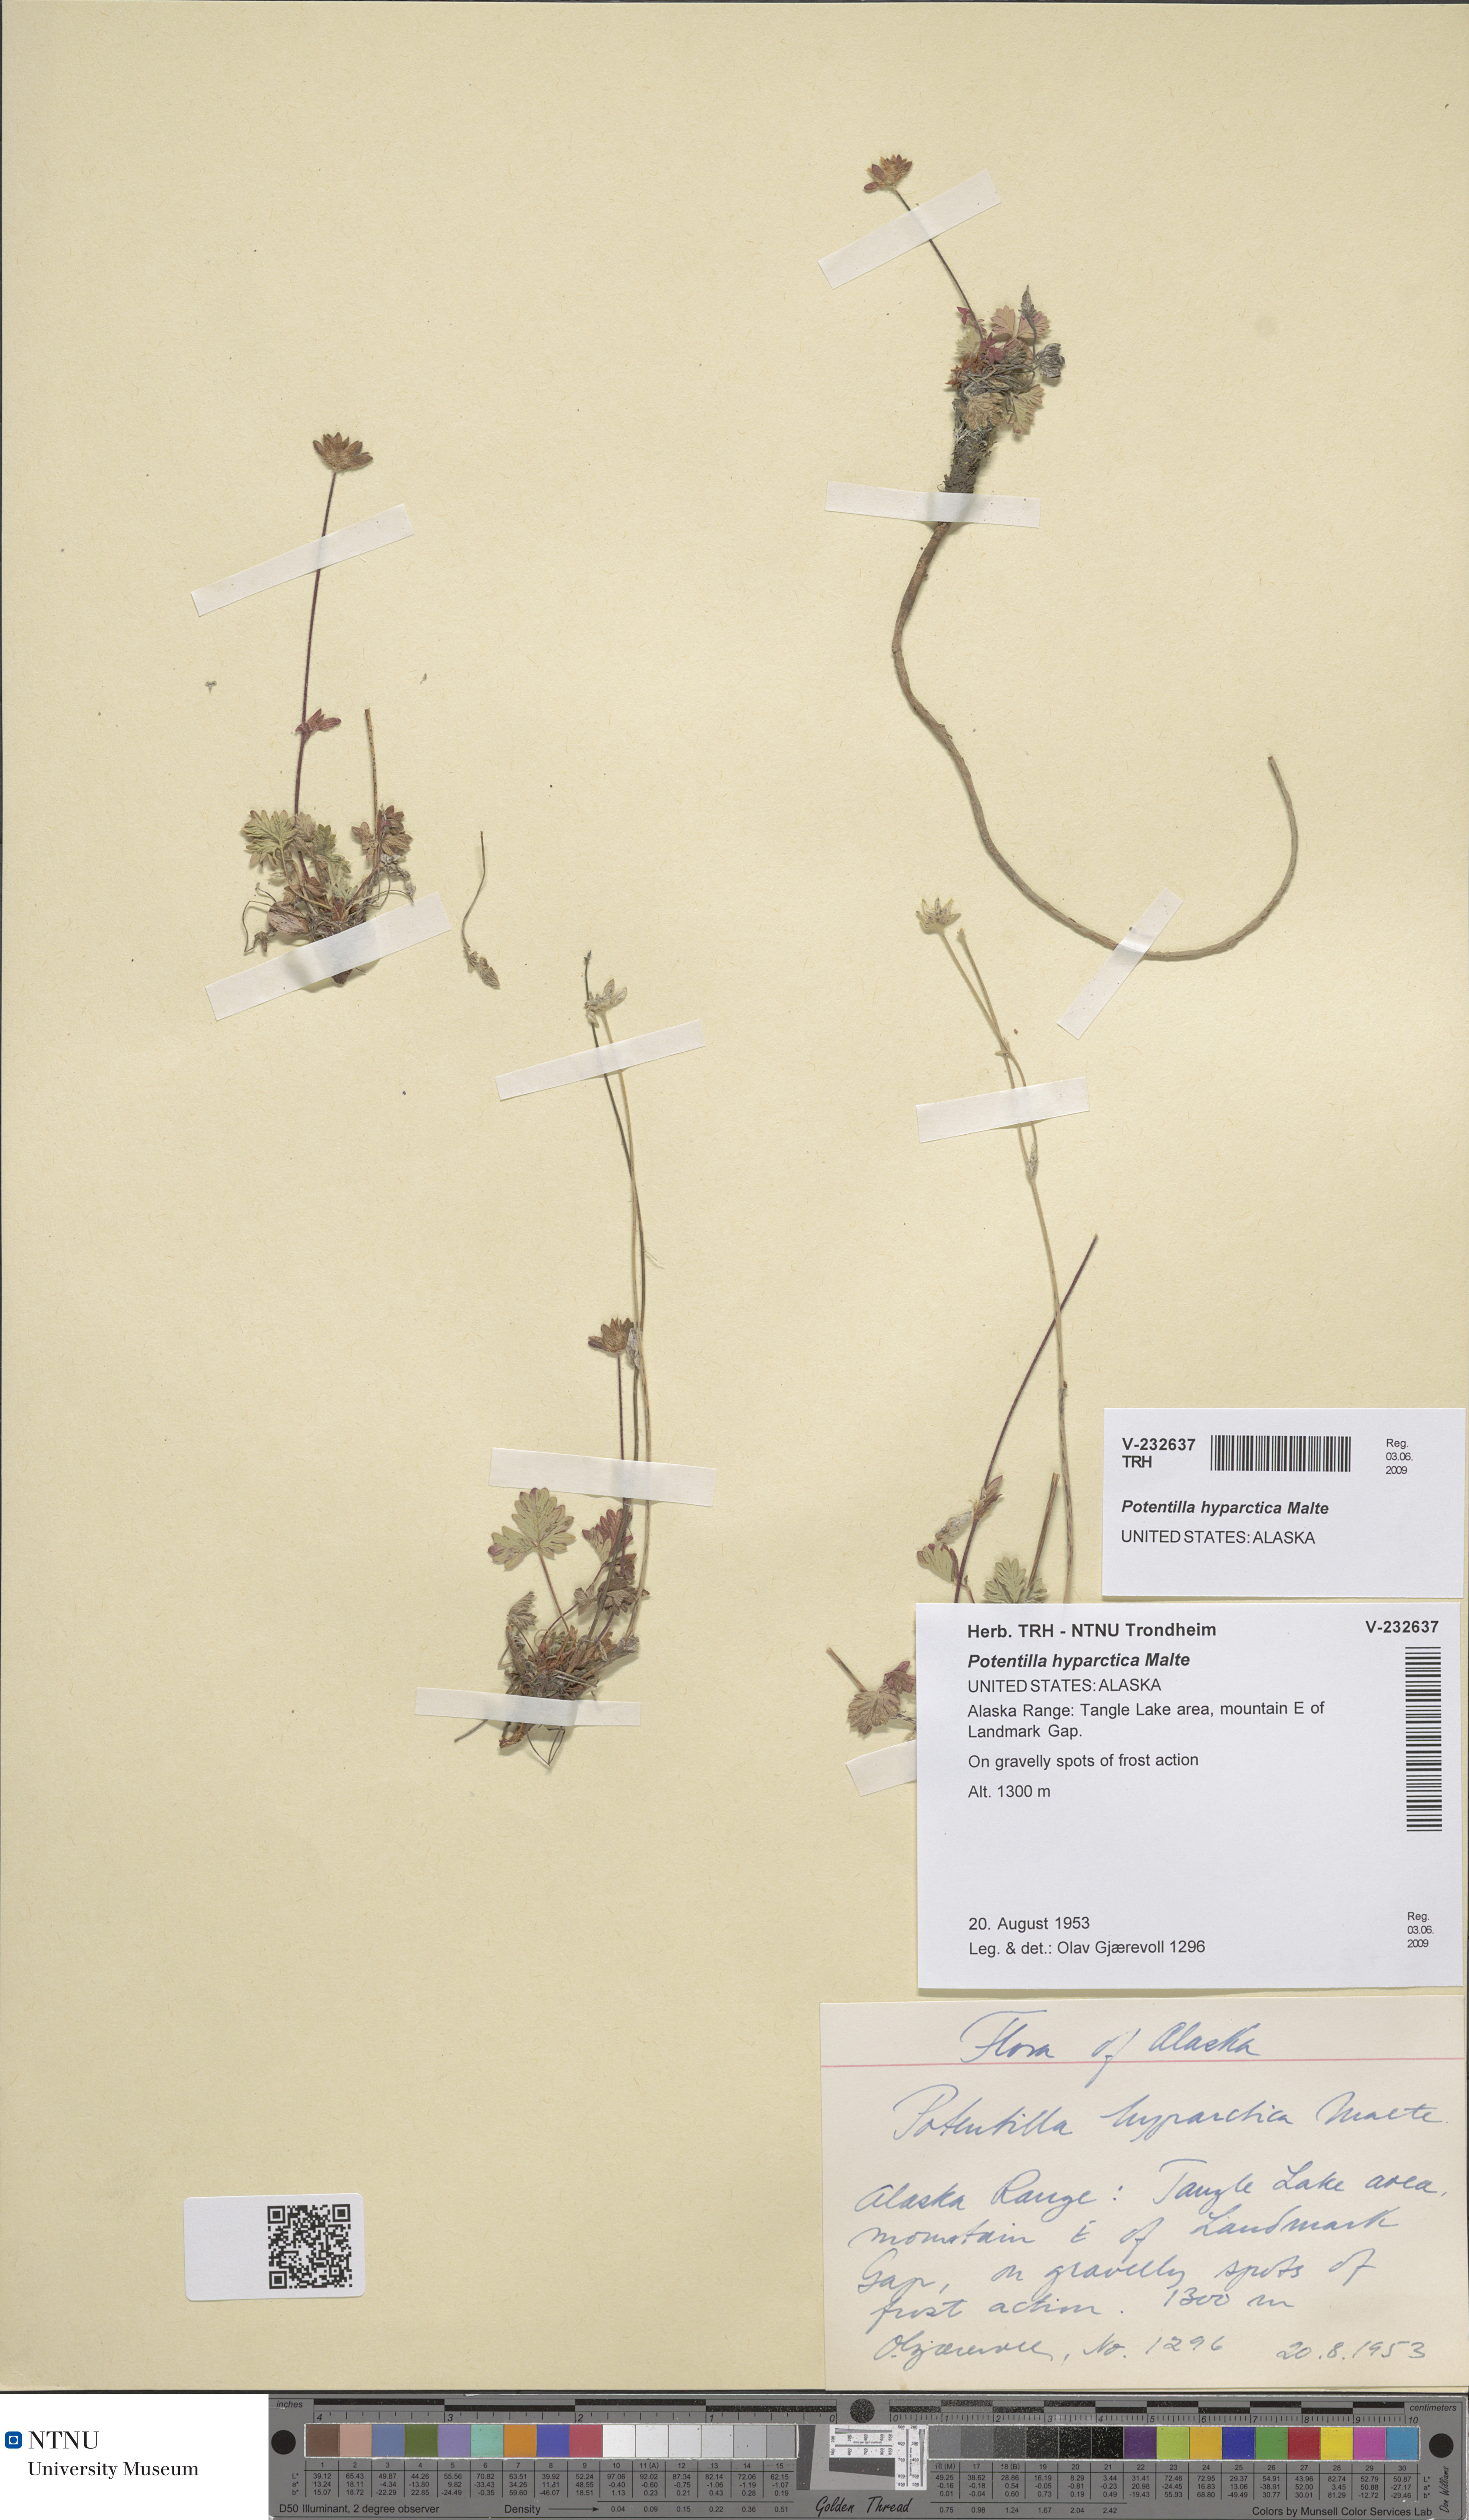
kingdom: Plantae
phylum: Tracheophyta
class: Magnoliopsida
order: Rosales
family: Rosaceae
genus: Potentilla
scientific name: Potentilla hyparctica
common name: Arctic cinquefoil
